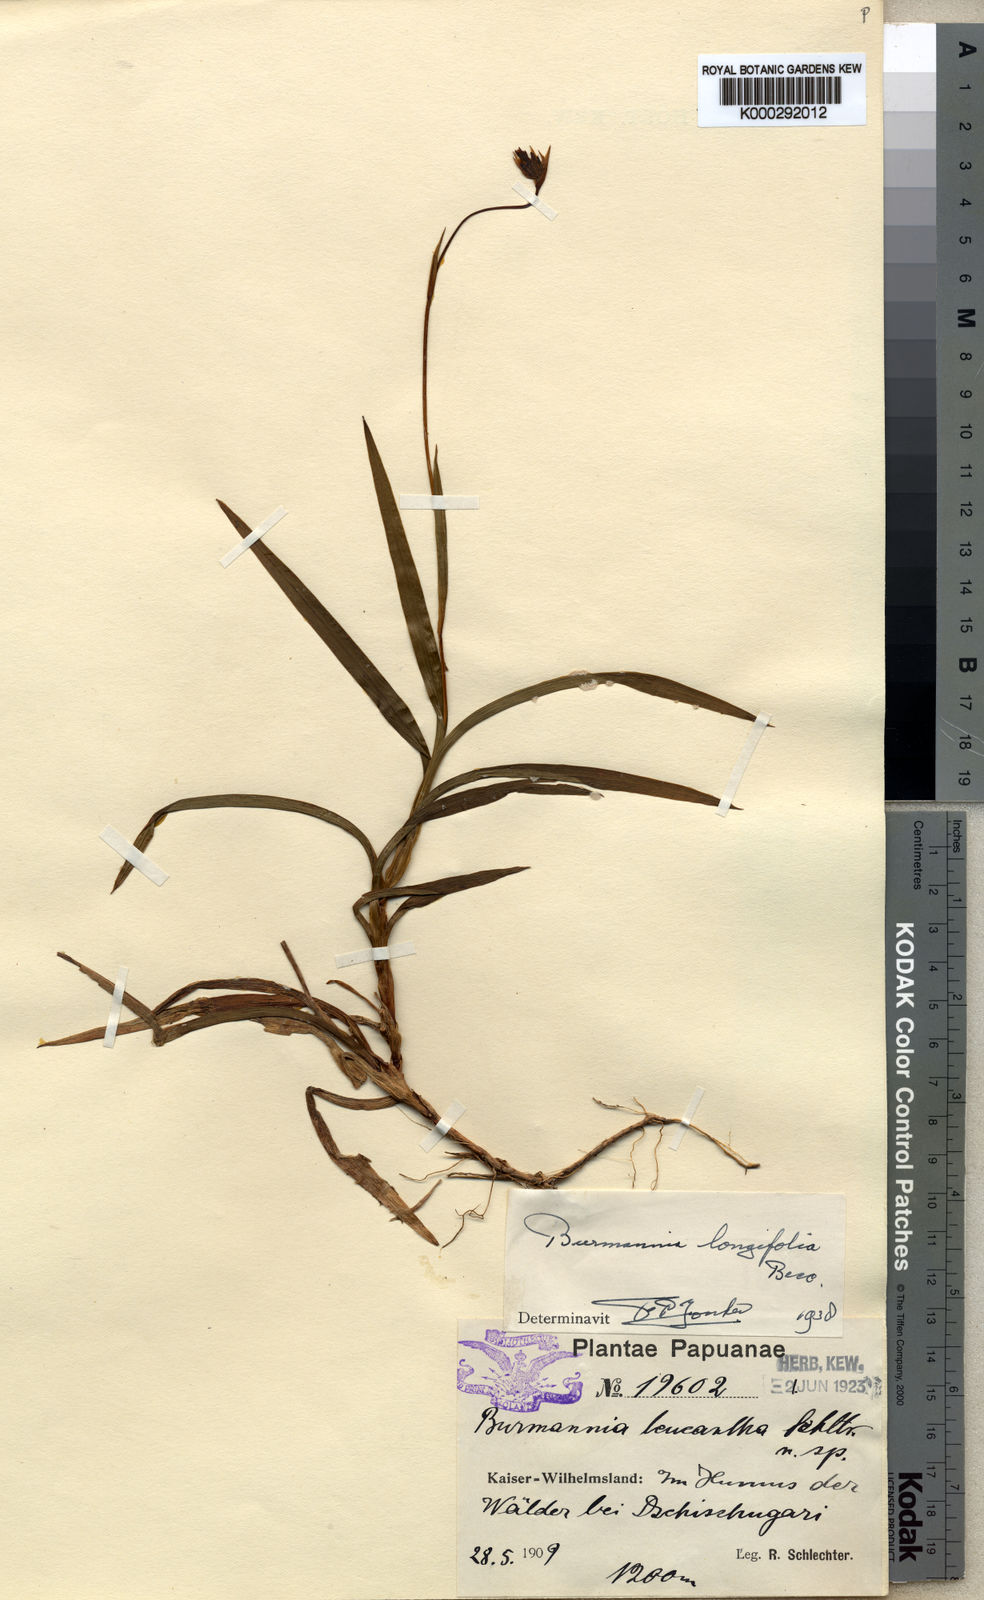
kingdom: Plantae
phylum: Tracheophyta
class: Liliopsida
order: Dioscoreales
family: Burmanniaceae
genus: Burmannia
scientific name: Burmannia longifolia
